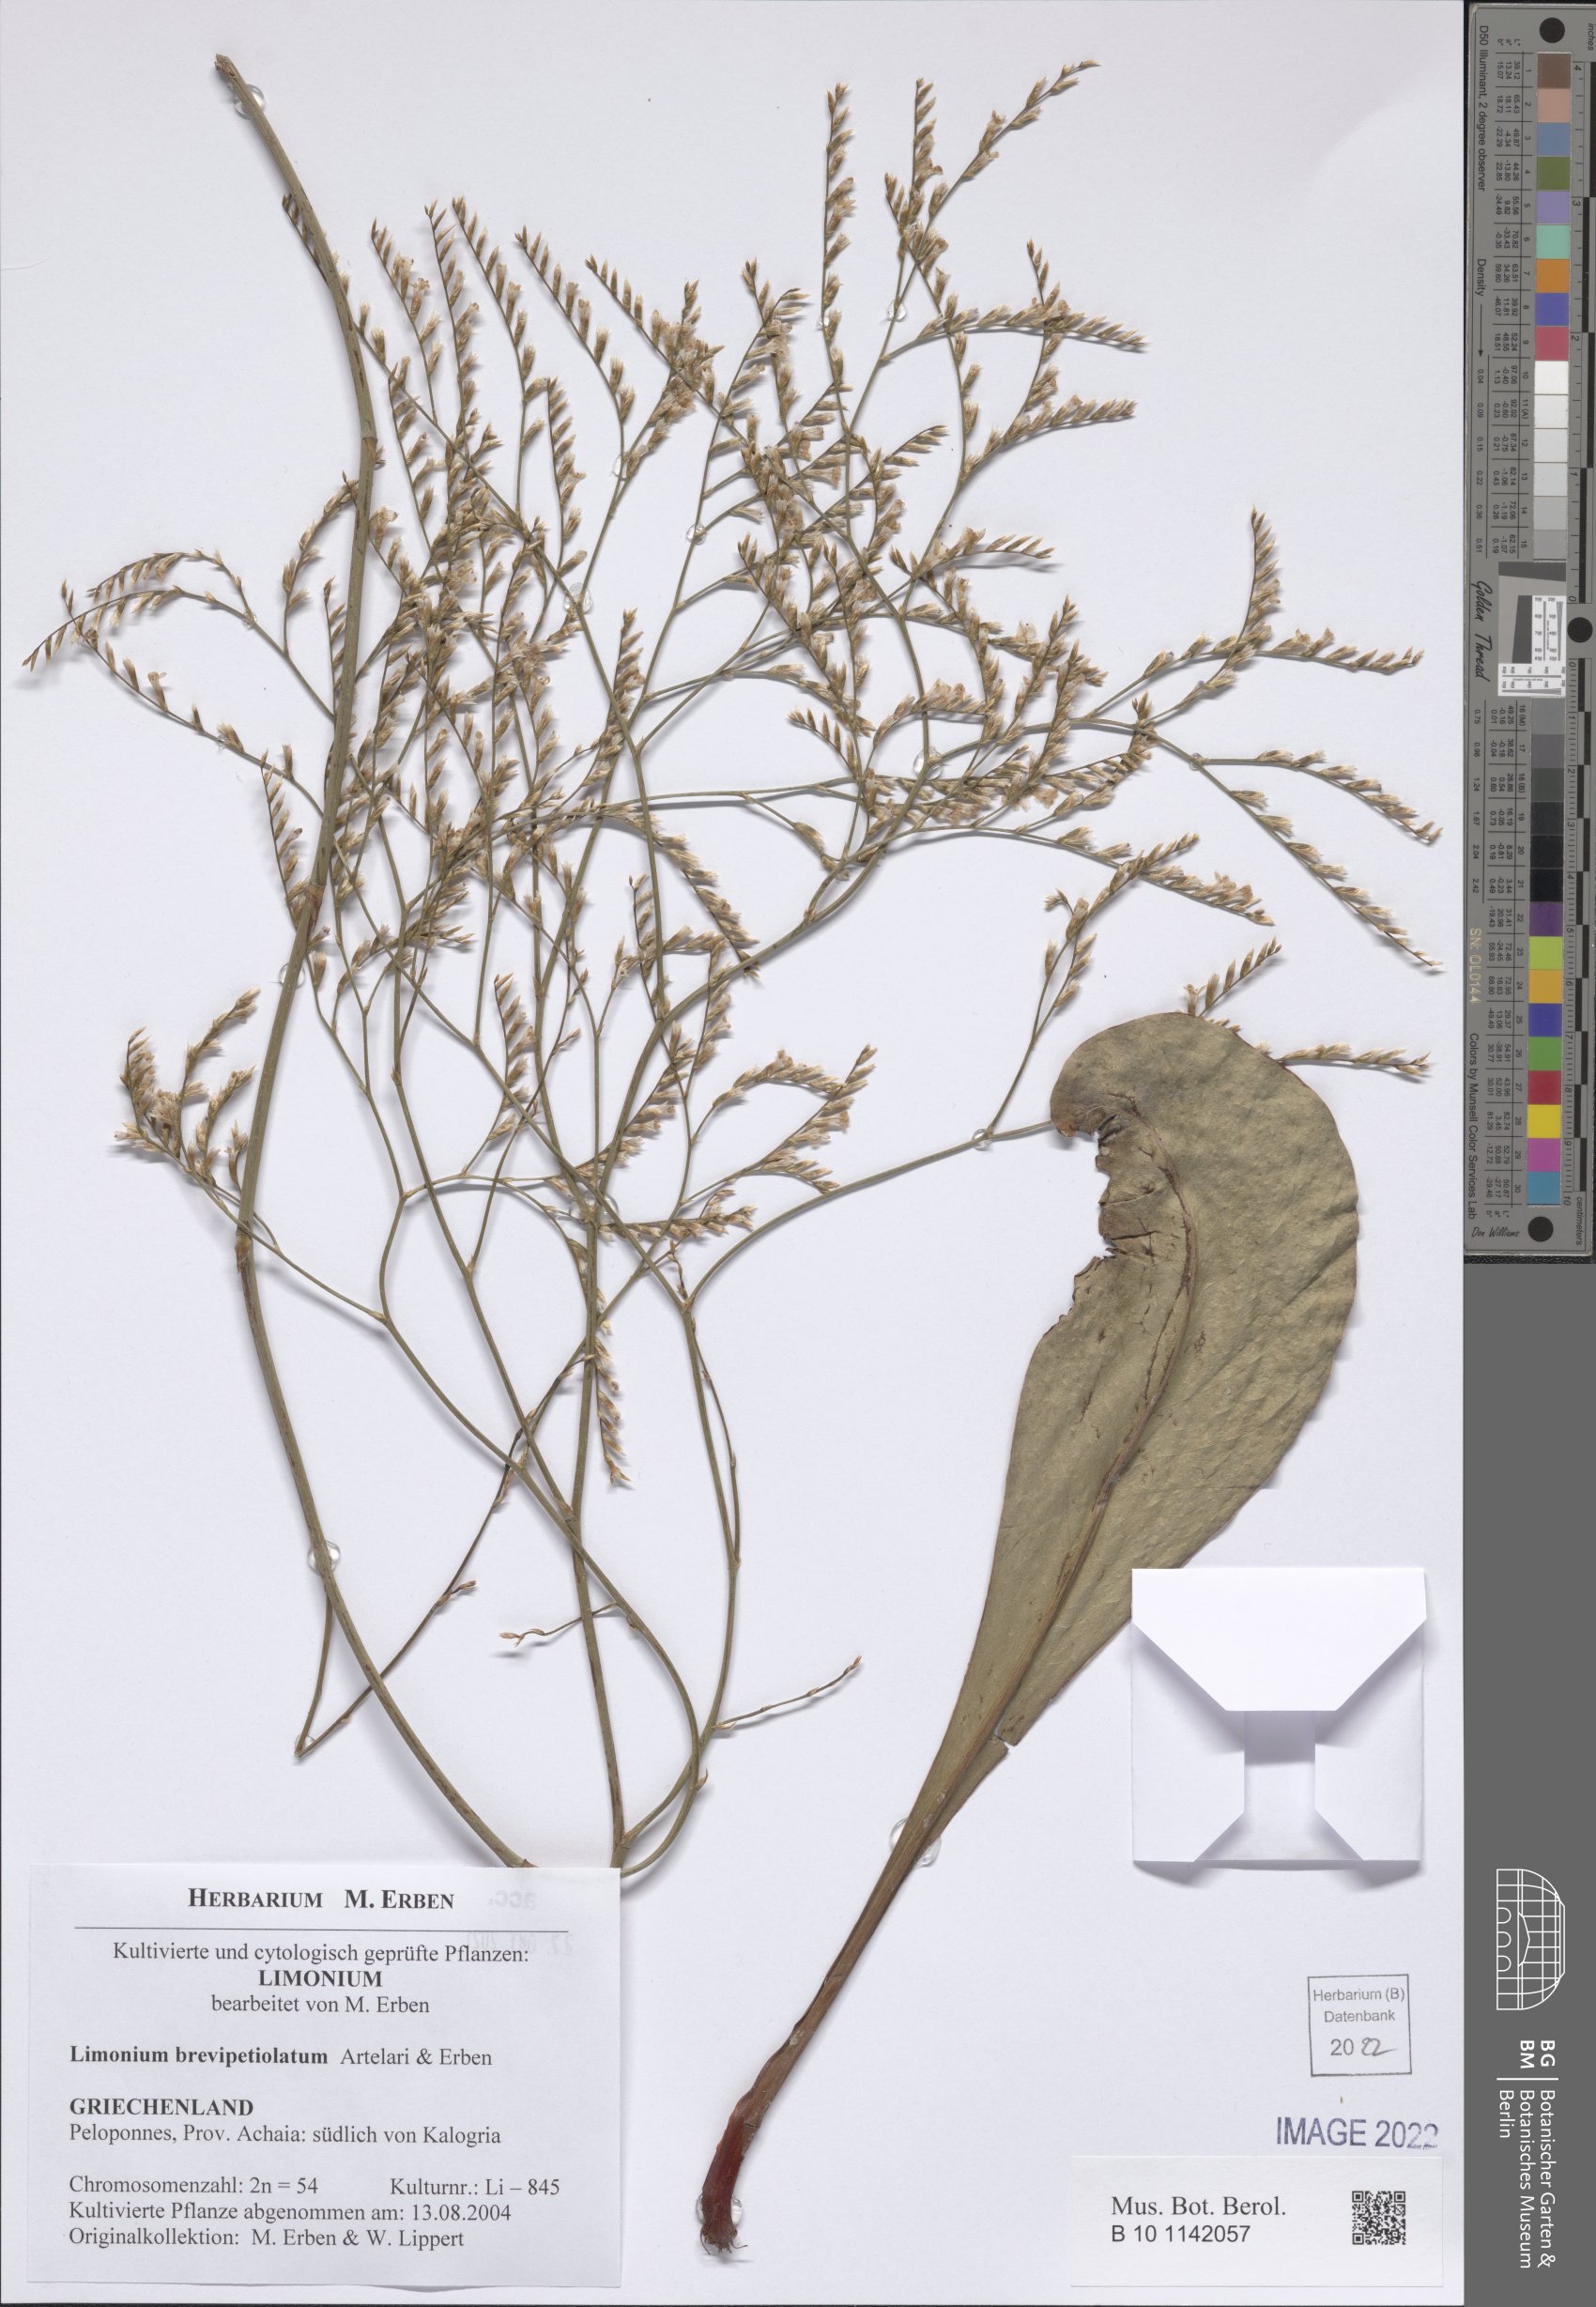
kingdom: Plantae
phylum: Tracheophyta
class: Magnoliopsida
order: Caryophyllales
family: Plumbaginaceae
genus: Limonium
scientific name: Limonium brevipetiolatum
